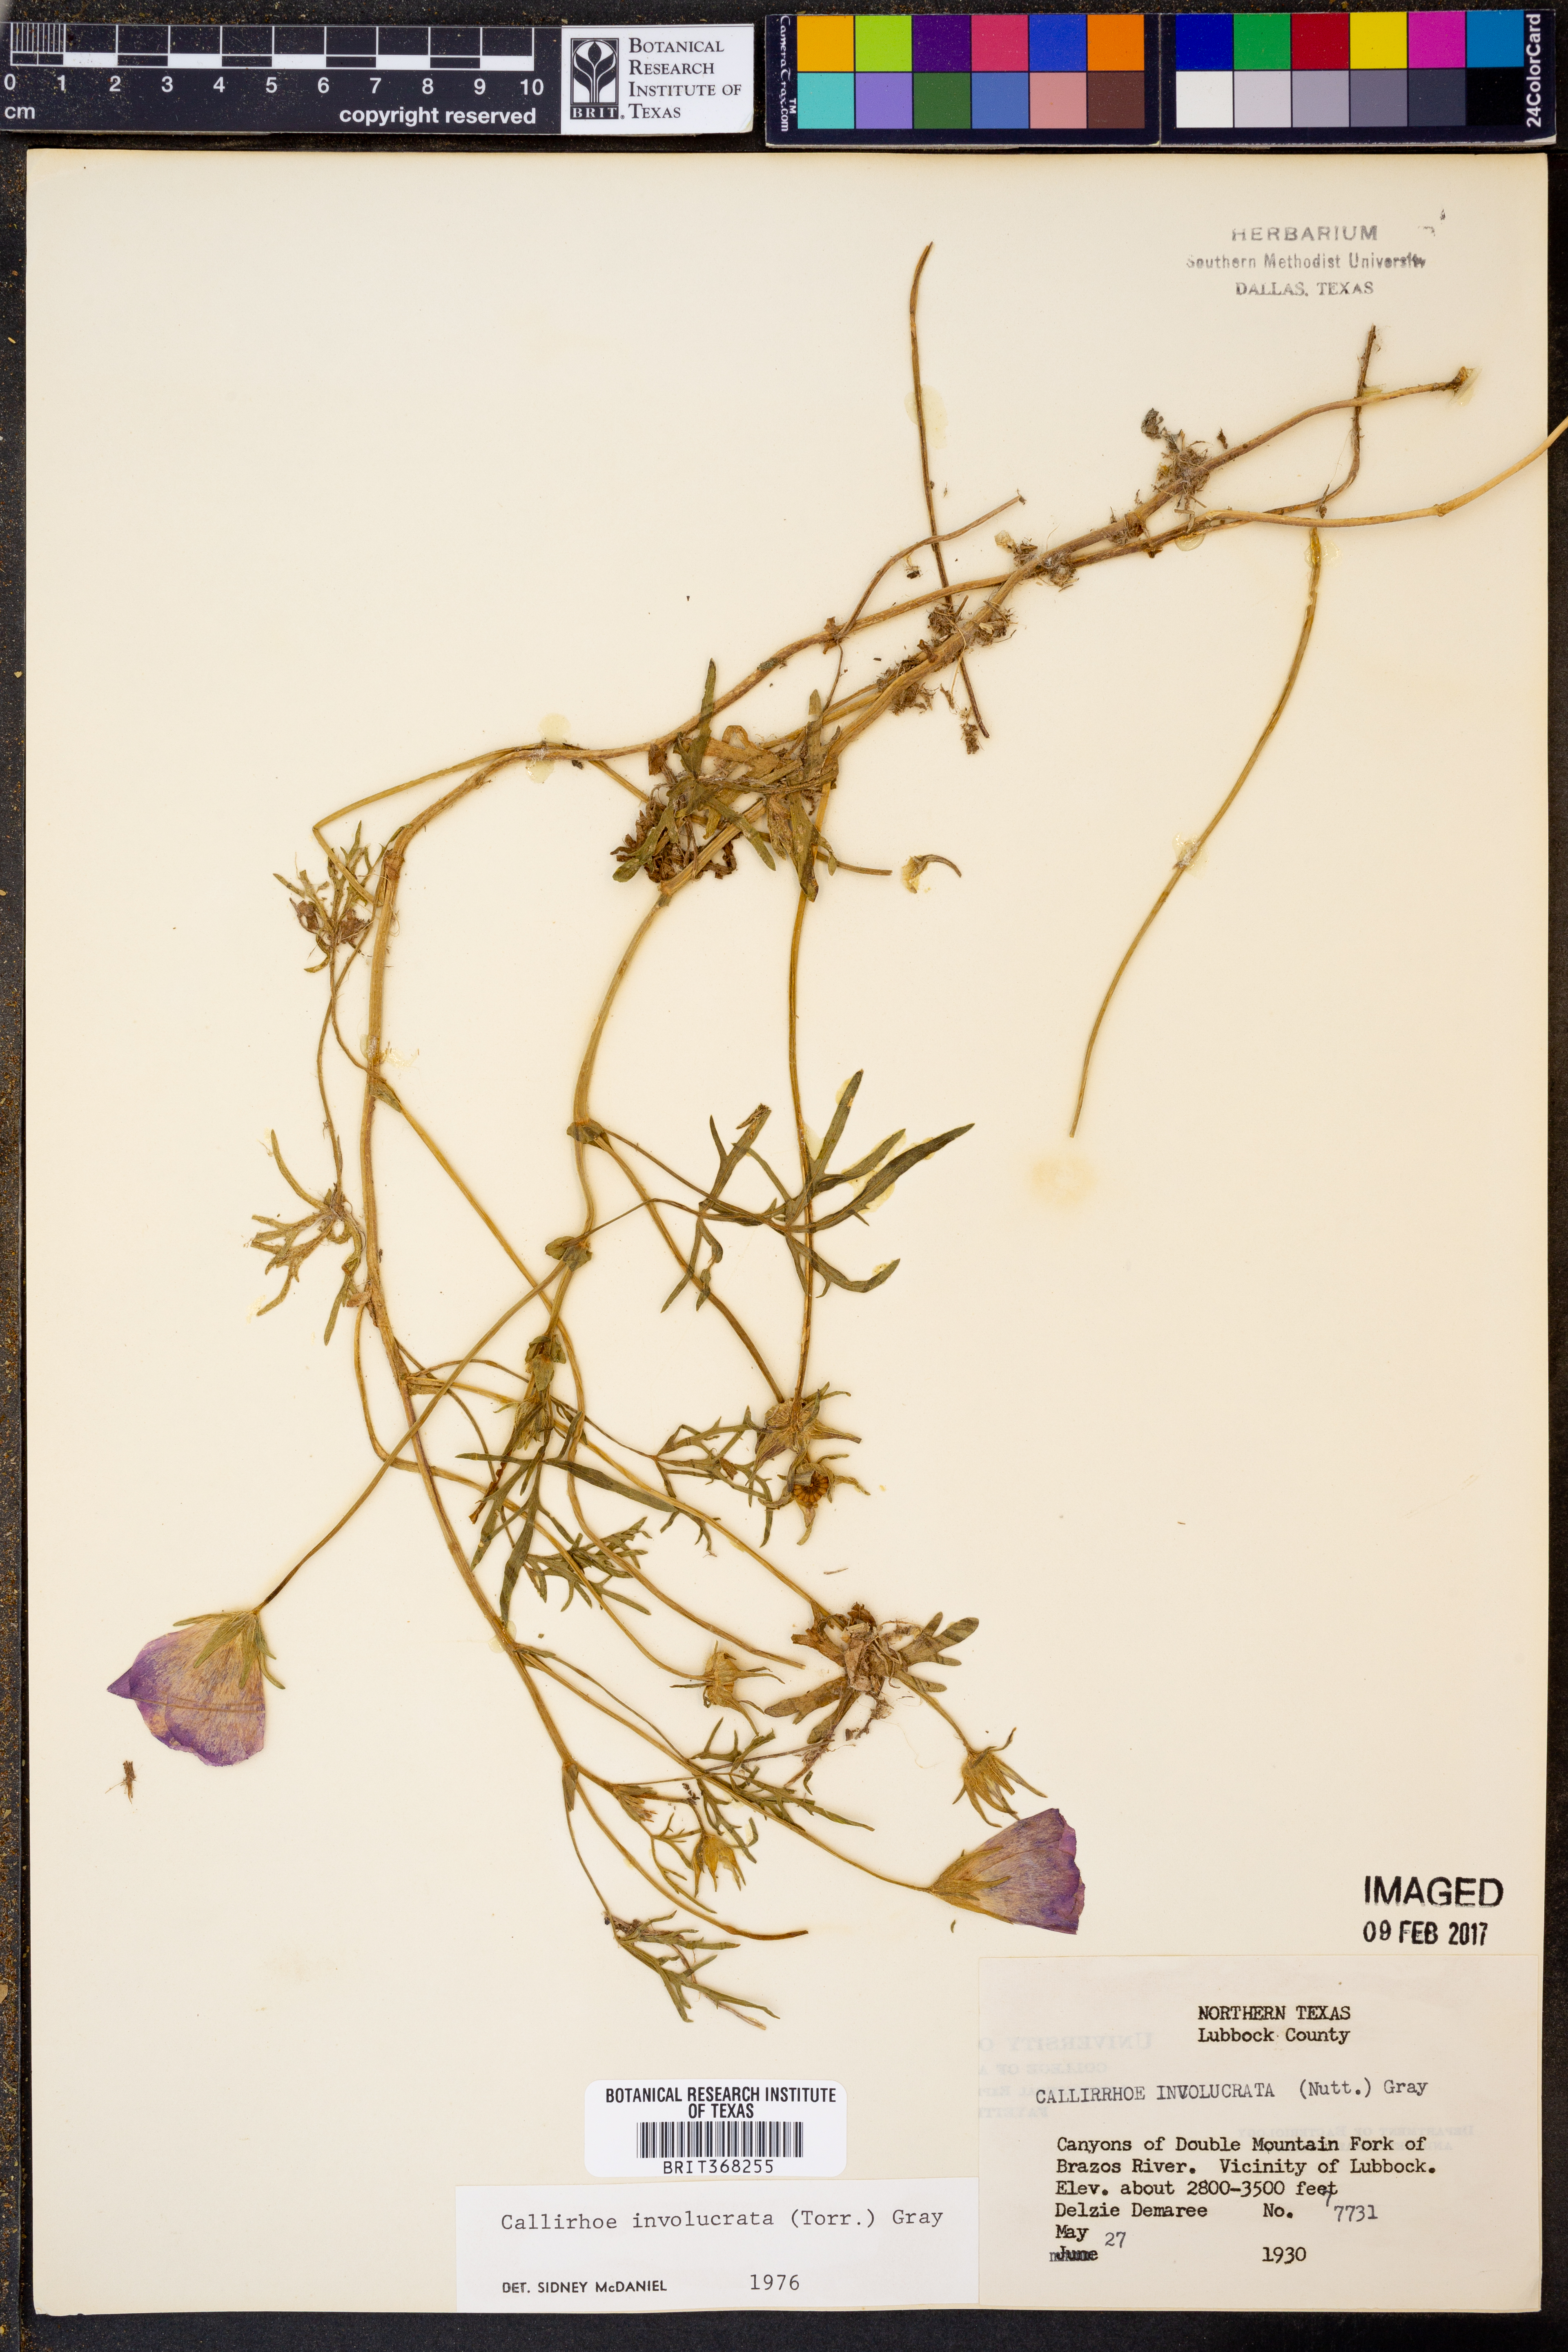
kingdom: Plantae
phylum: Tracheophyta
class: Magnoliopsida
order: Malvales
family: Malvaceae
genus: Callirhoe
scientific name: Callirhoe involucrata
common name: Purple poppy-mallow
